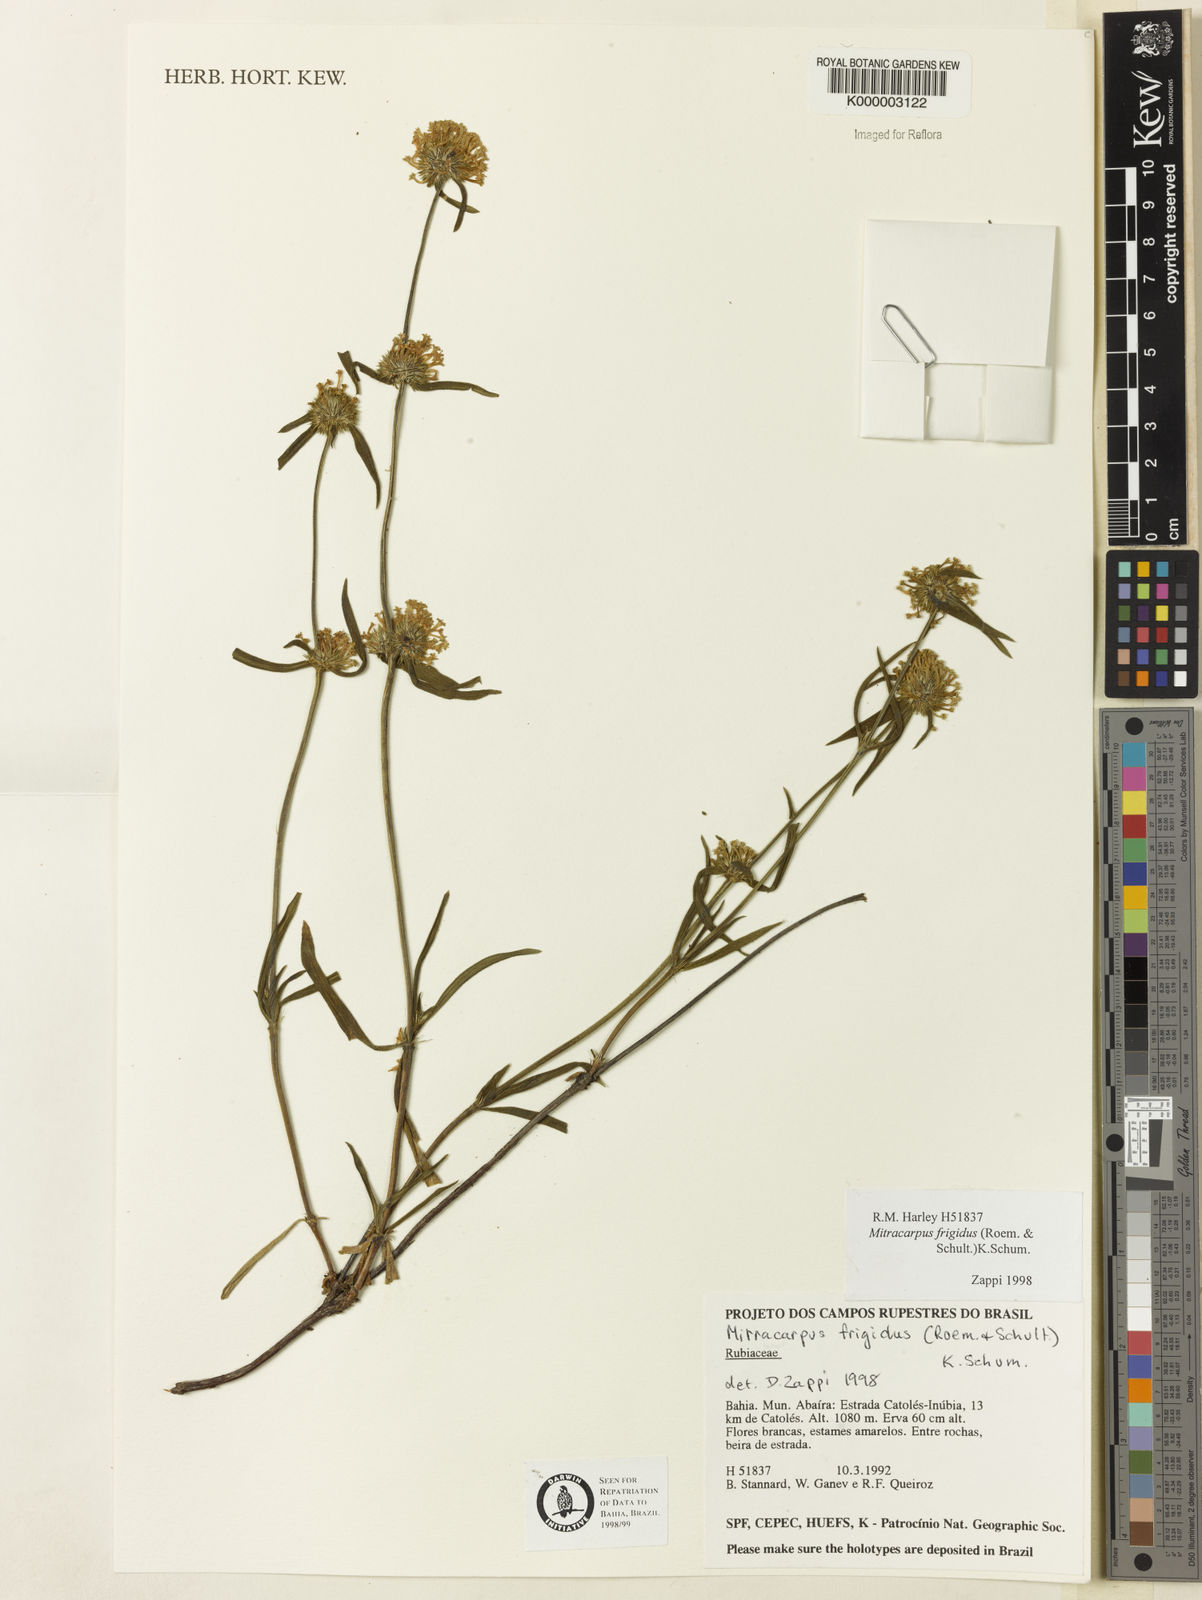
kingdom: Plantae
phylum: Tracheophyta
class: Magnoliopsida
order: Gentianales
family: Rubiaceae
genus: Mitracarpus
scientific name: Mitracarpus frigidus
